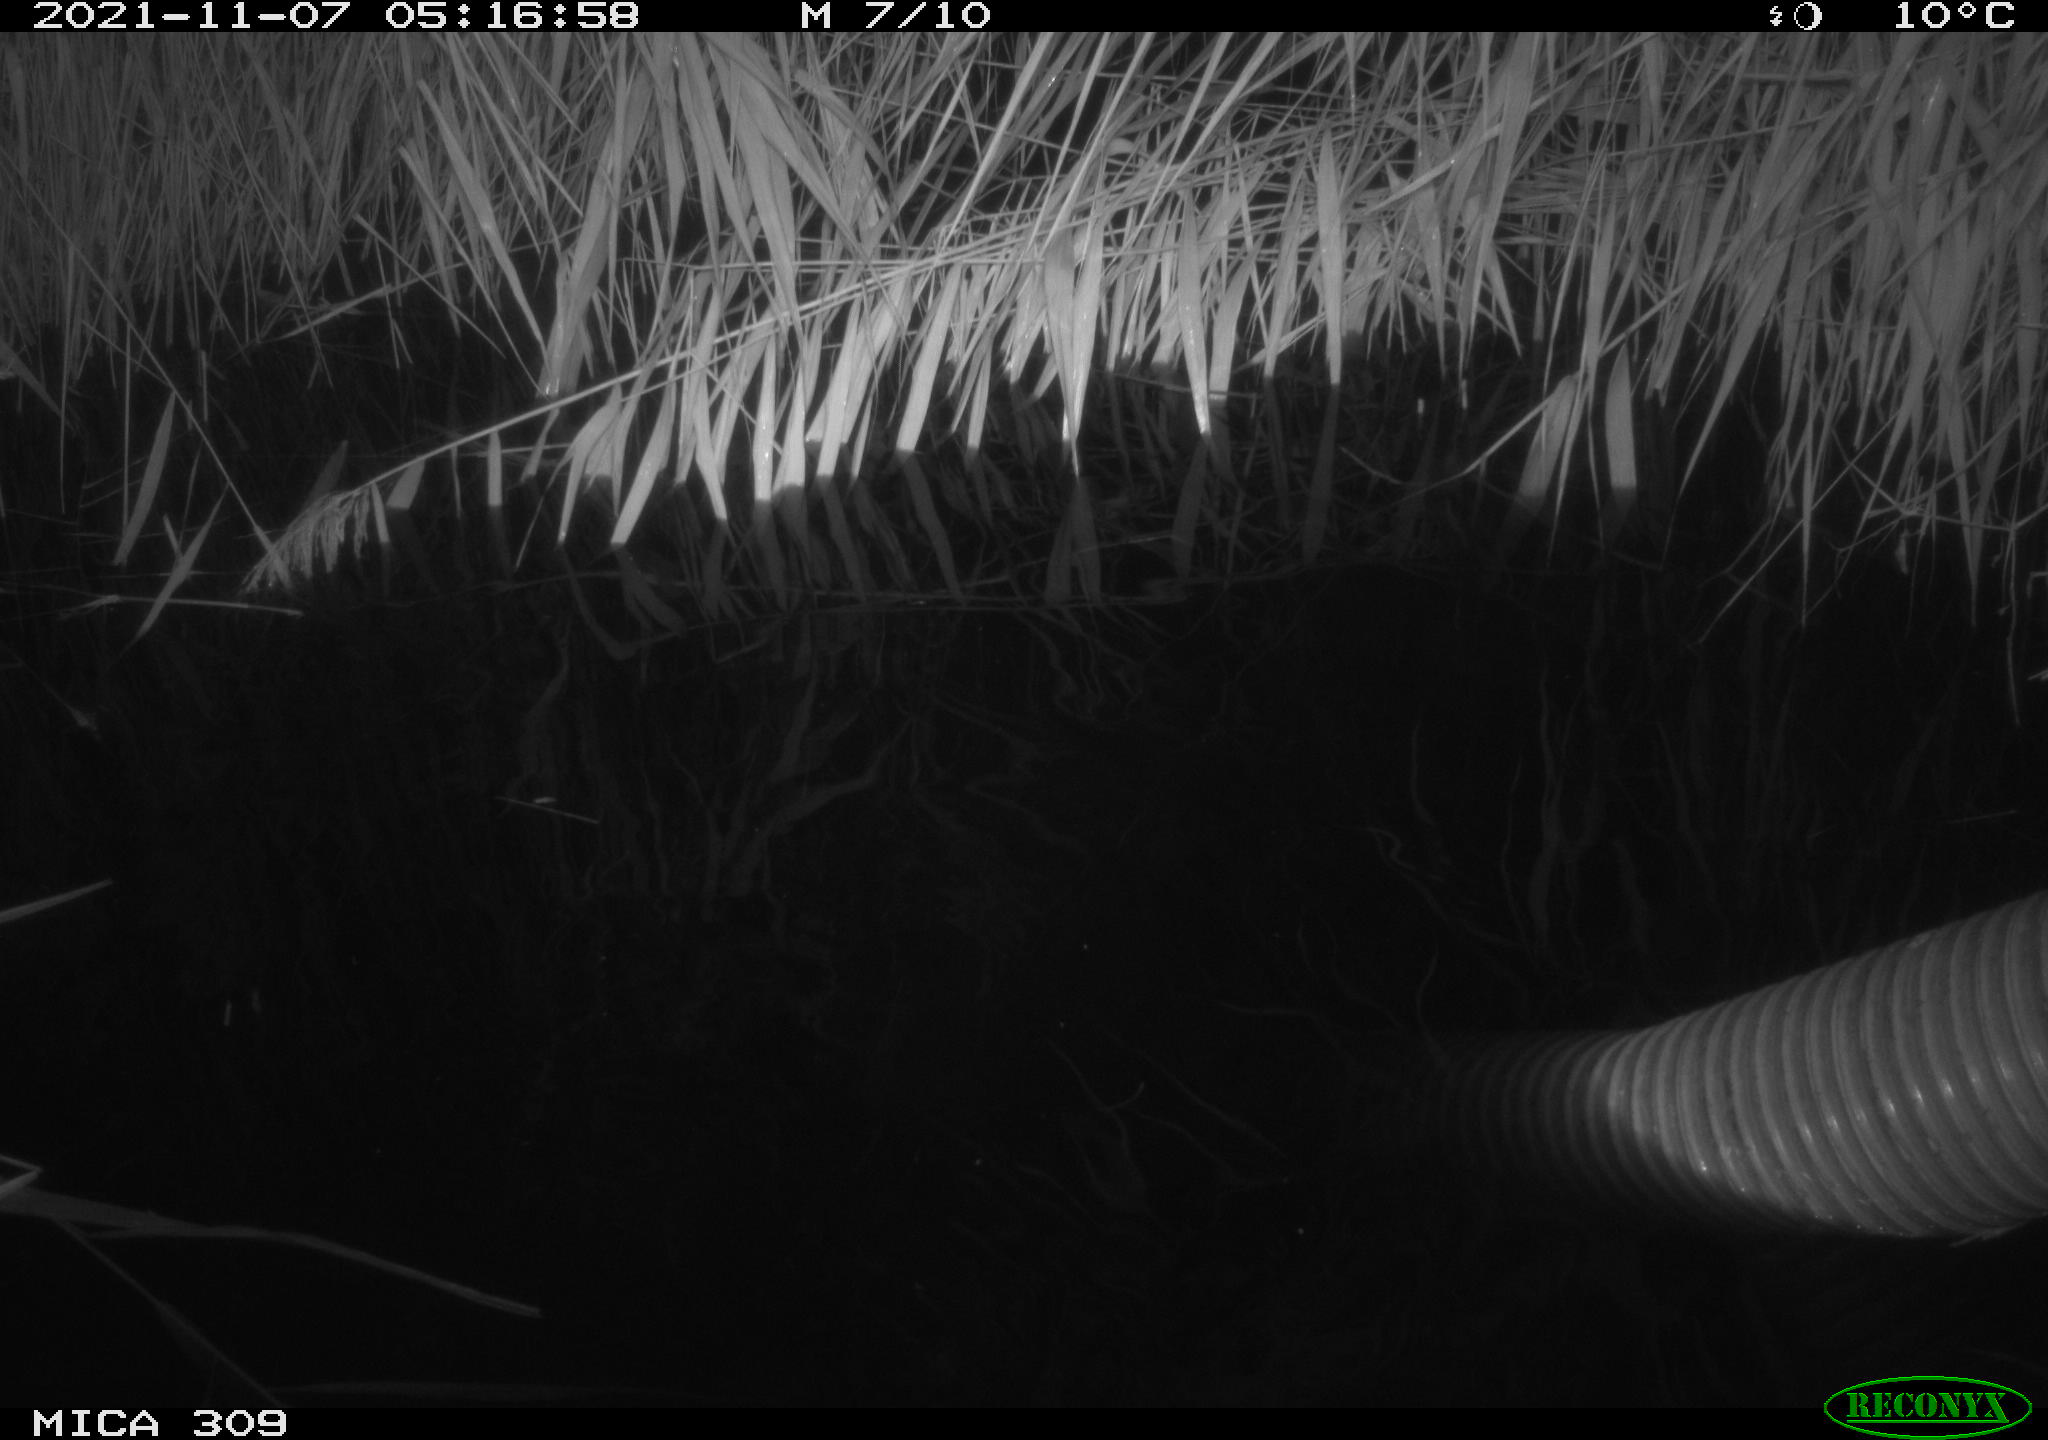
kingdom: Animalia
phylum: Chordata
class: Mammalia
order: Rodentia
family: Muridae
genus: Rattus
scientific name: Rattus norvegicus
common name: Brown rat
